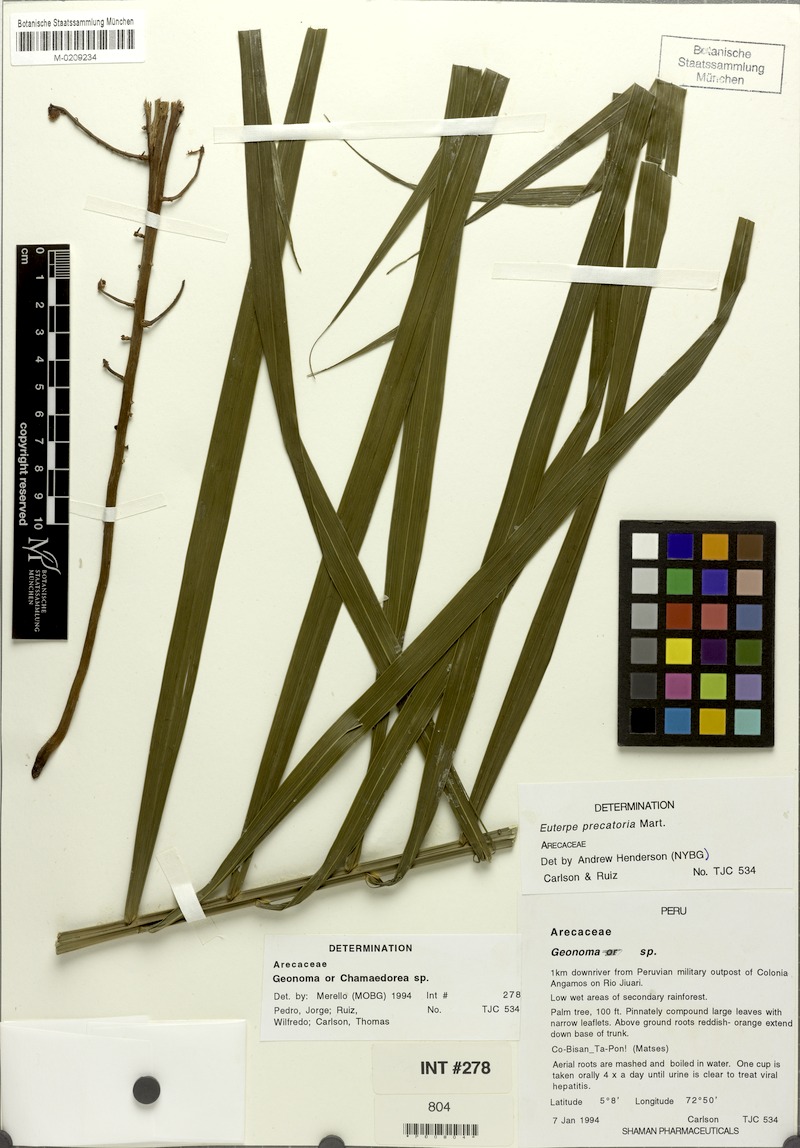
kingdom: Plantae
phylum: Tracheophyta
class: Liliopsida
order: Arecales
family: Arecaceae
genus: Euterpe
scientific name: Euterpe precatoria
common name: Mountain-cabbage
